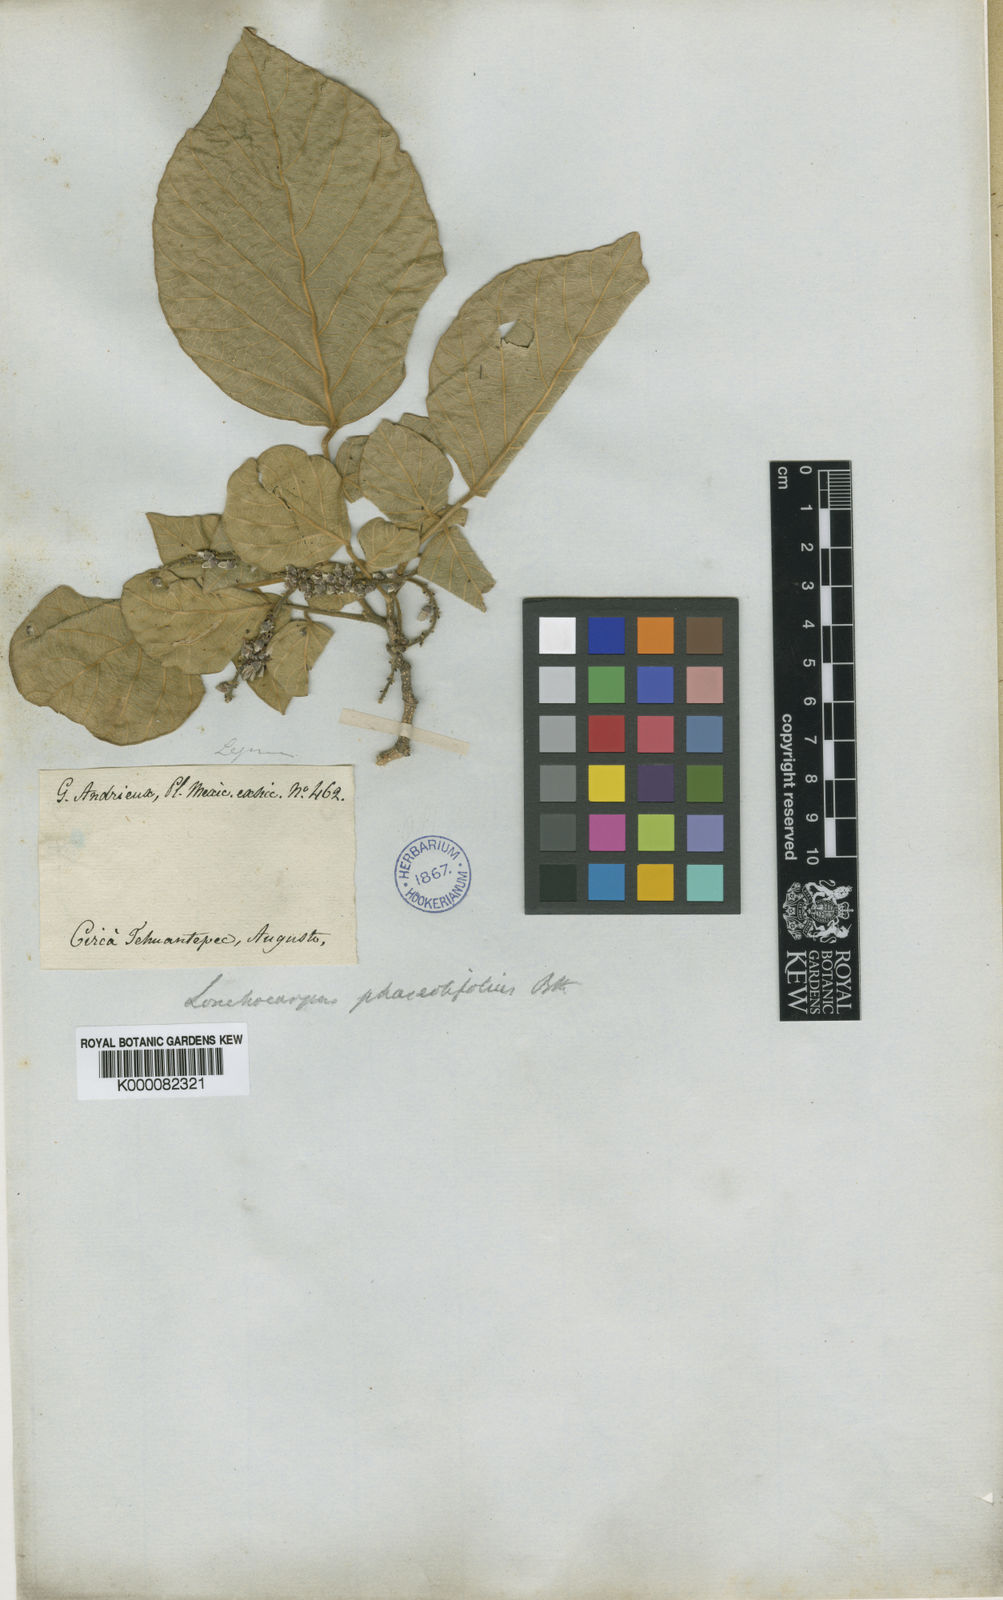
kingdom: Plantae
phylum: Tracheophyta
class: Magnoliopsida
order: Fabales
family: Fabaceae
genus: Lonchocarpus
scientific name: Lonchocarpus phaseolifolius
